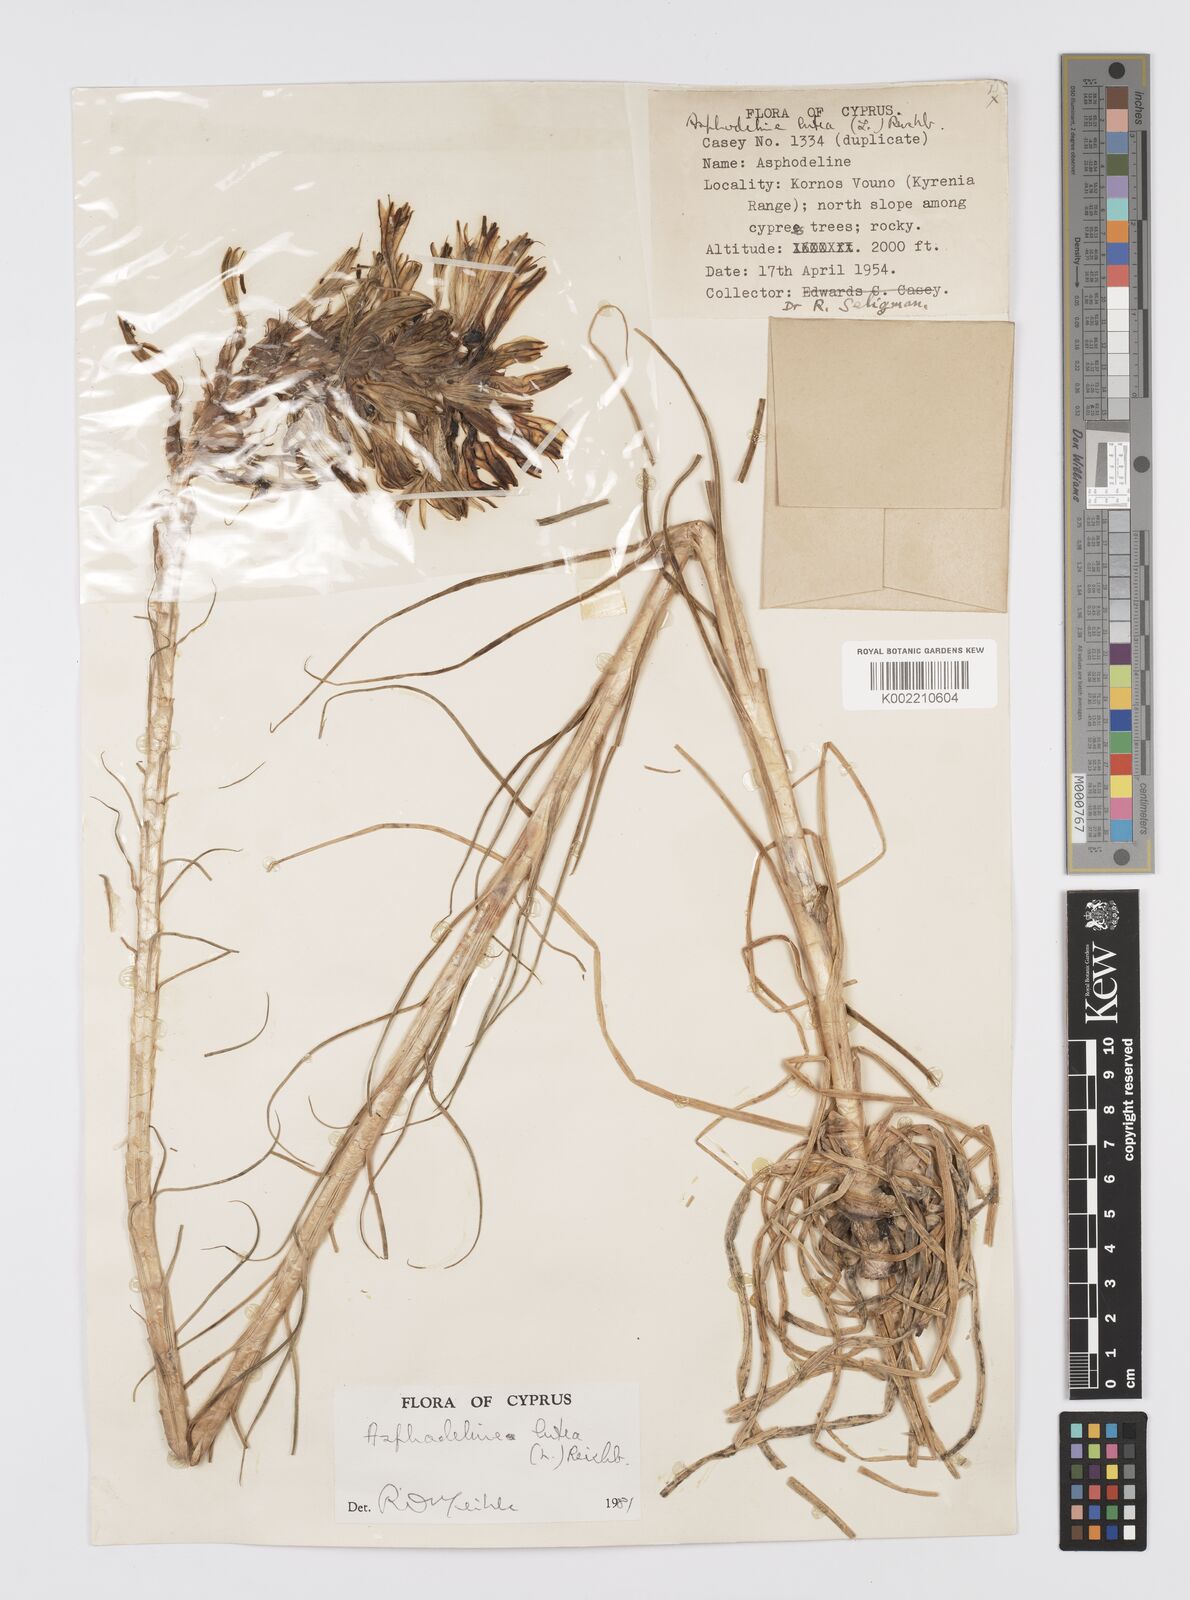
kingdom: Plantae
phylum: Tracheophyta
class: Liliopsida
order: Asparagales
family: Asphodelaceae
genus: Asphodeline
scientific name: Asphodeline lutea
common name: Yellow asphodel
